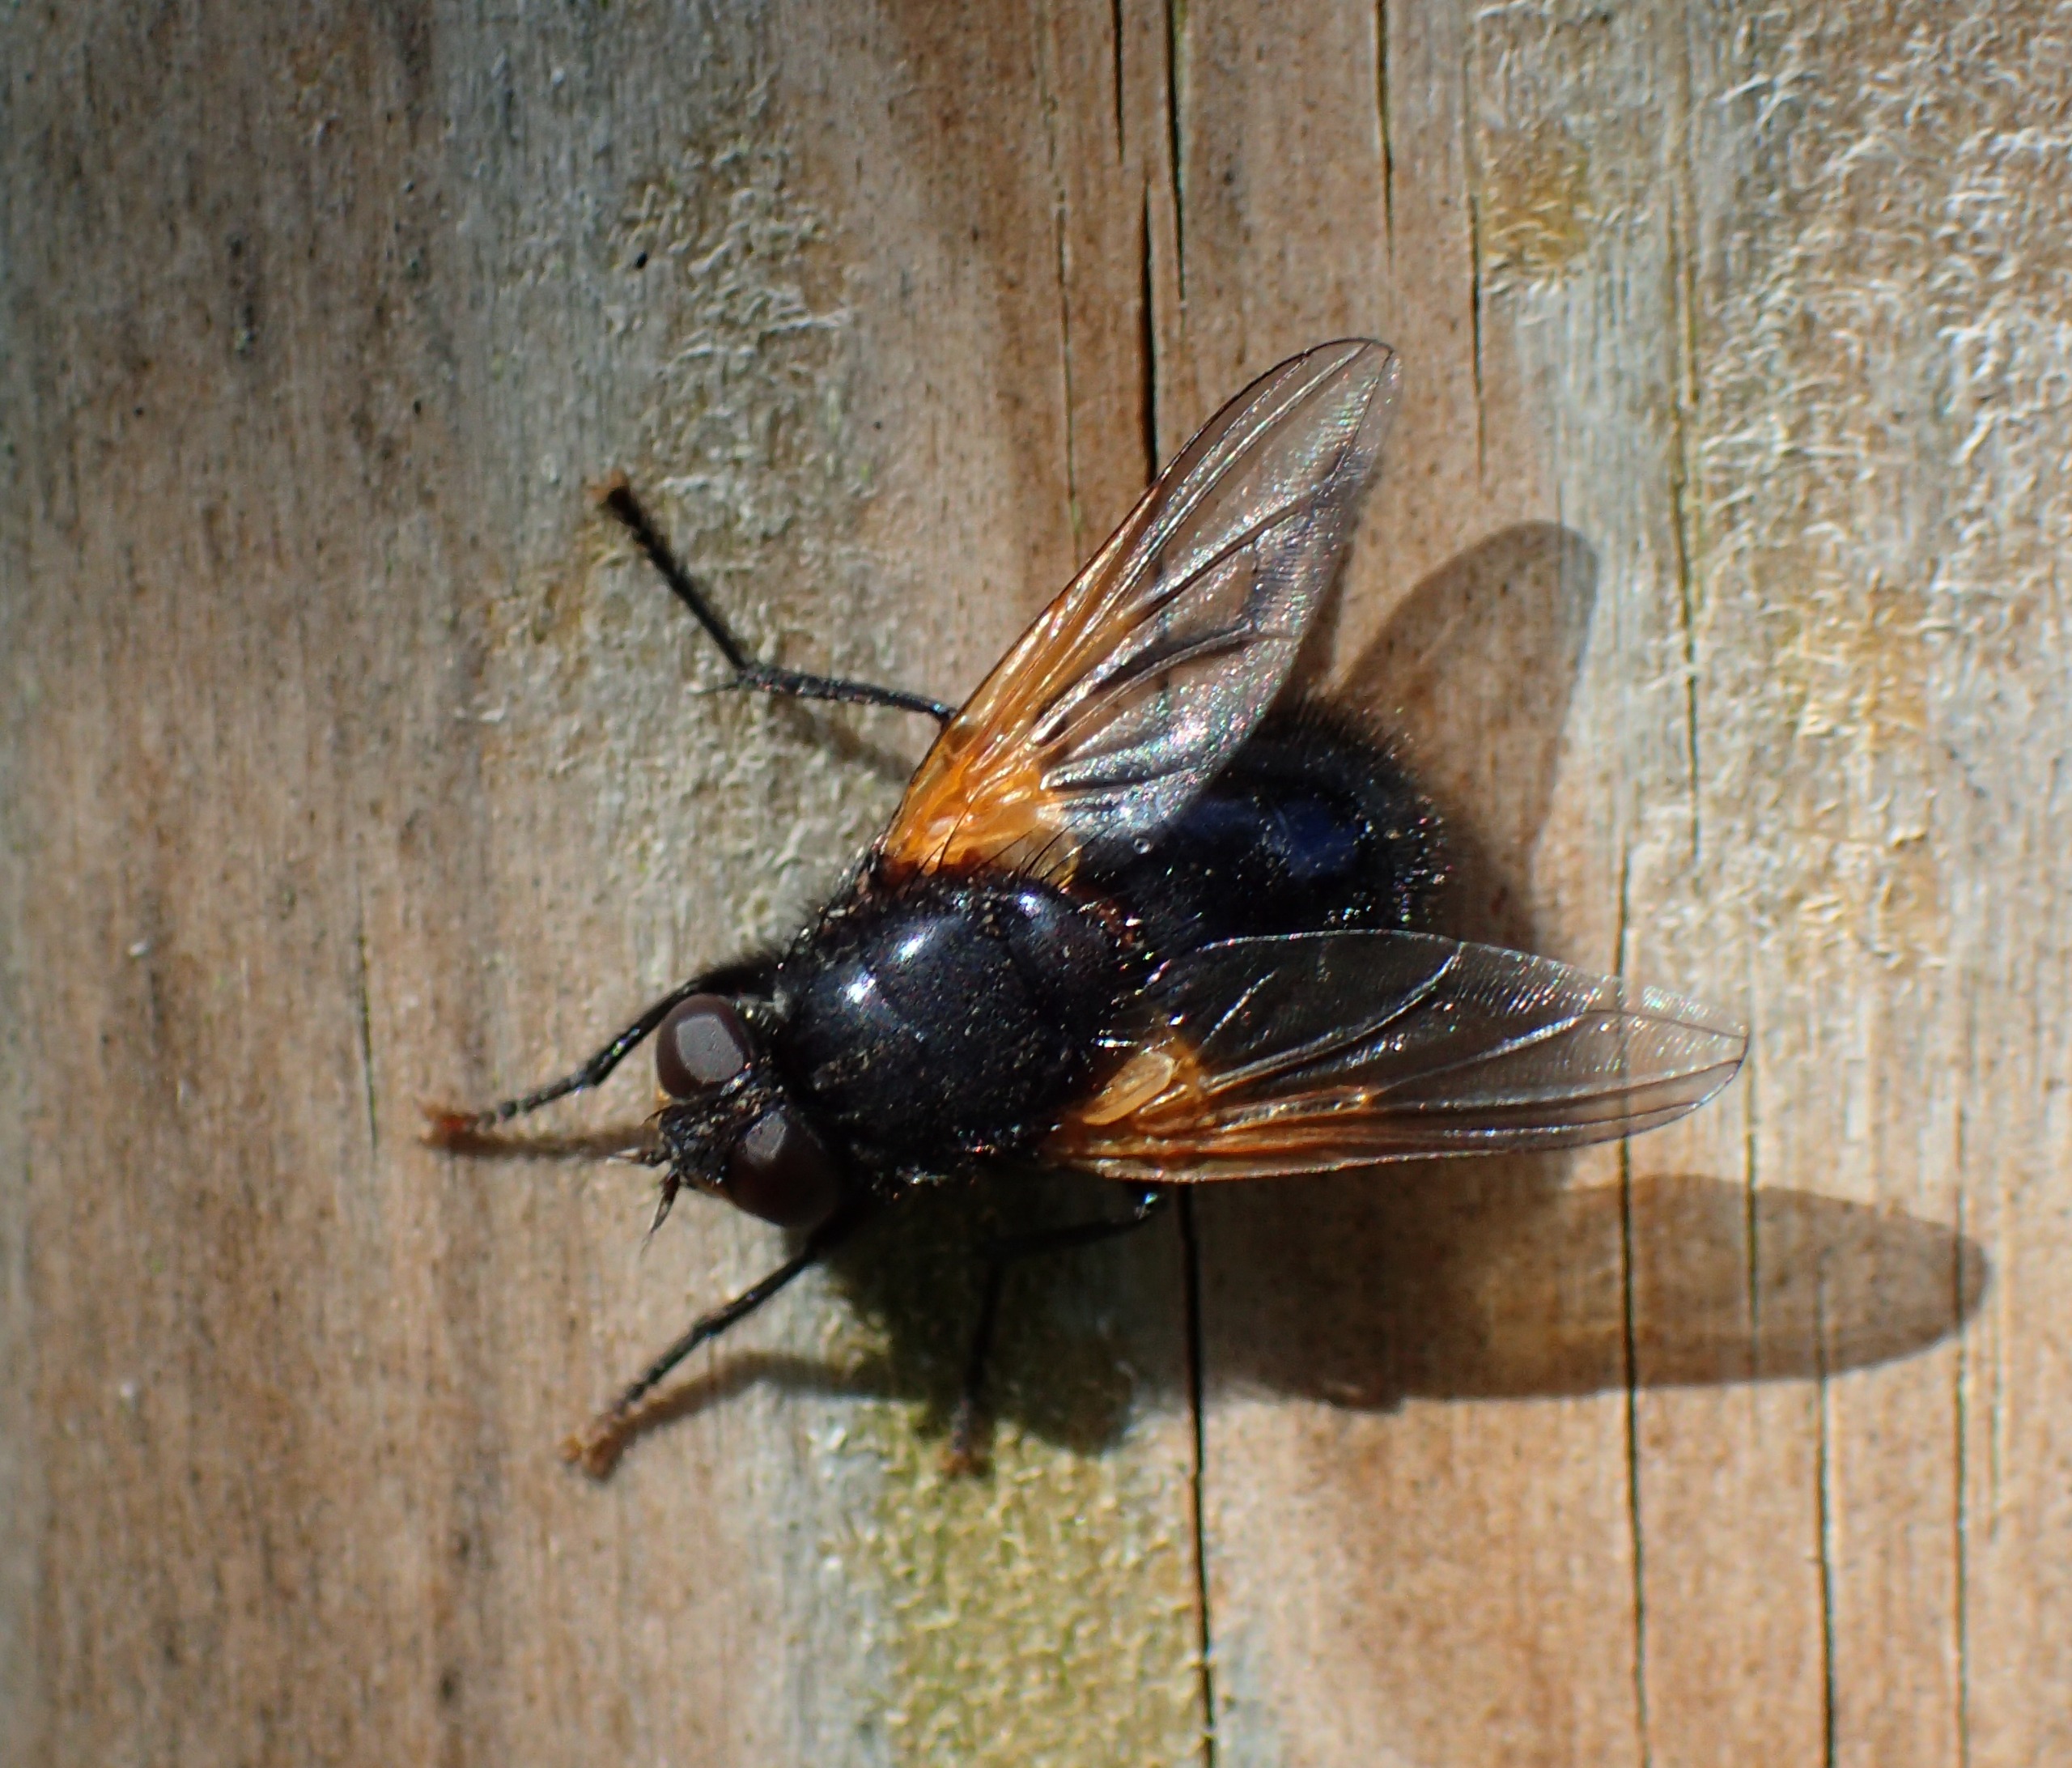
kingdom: Animalia
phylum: Arthropoda
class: Insecta
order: Diptera
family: Muscidae
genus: Mesembrina
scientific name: Mesembrina meridiana
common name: Gulvinget flue
